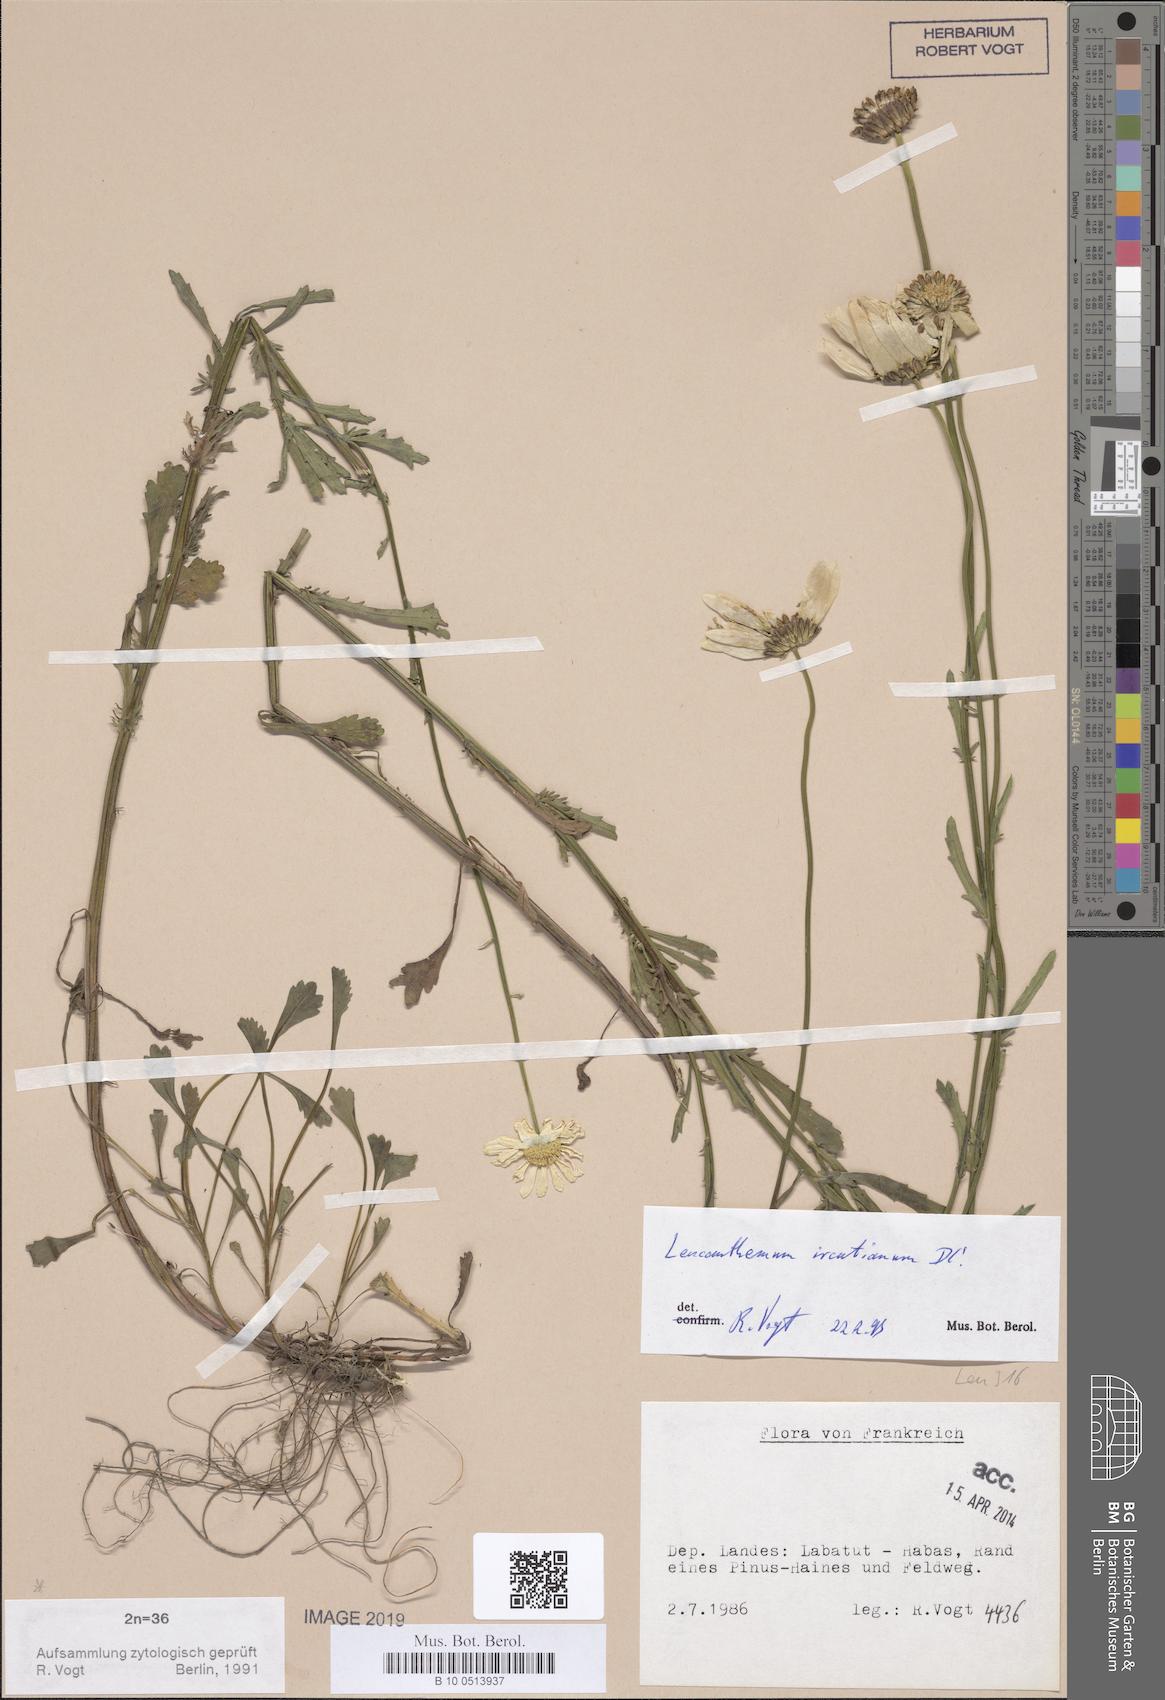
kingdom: Plantae
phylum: Tracheophyta
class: Magnoliopsida
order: Asterales
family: Asteraceae
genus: Leucanthemum
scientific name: Leucanthemum ircutianum
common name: Daisy
